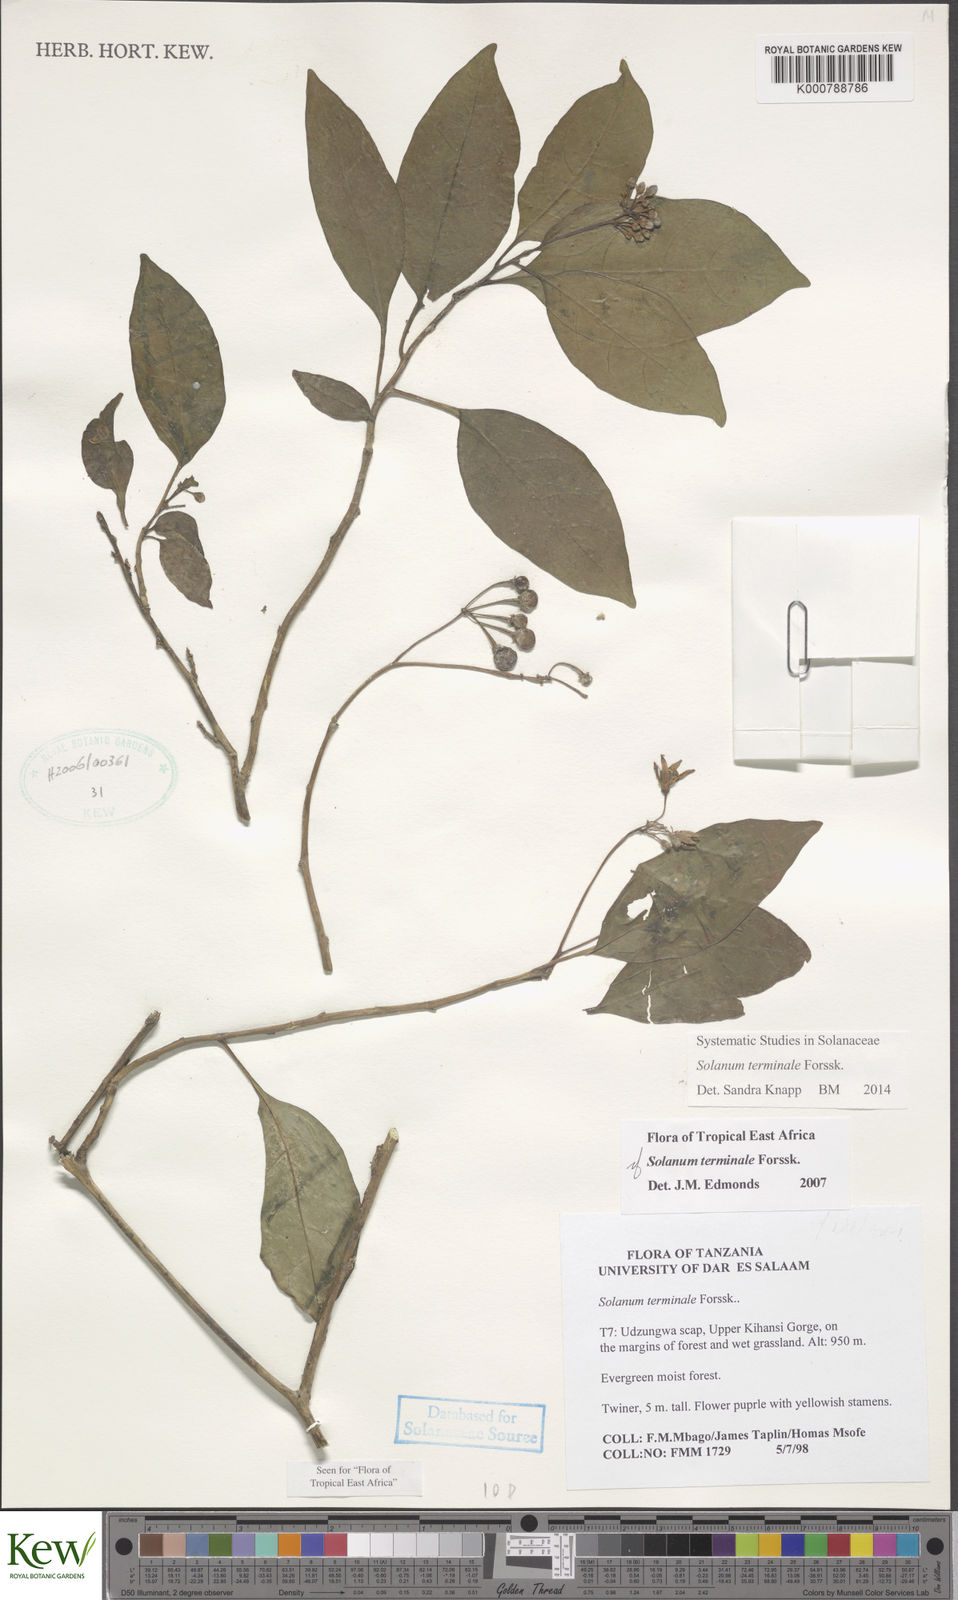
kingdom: Plantae
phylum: Tracheophyta
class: Magnoliopsida
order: Solanales
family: Solanaceae
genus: Solanum
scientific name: Solanum terminale
